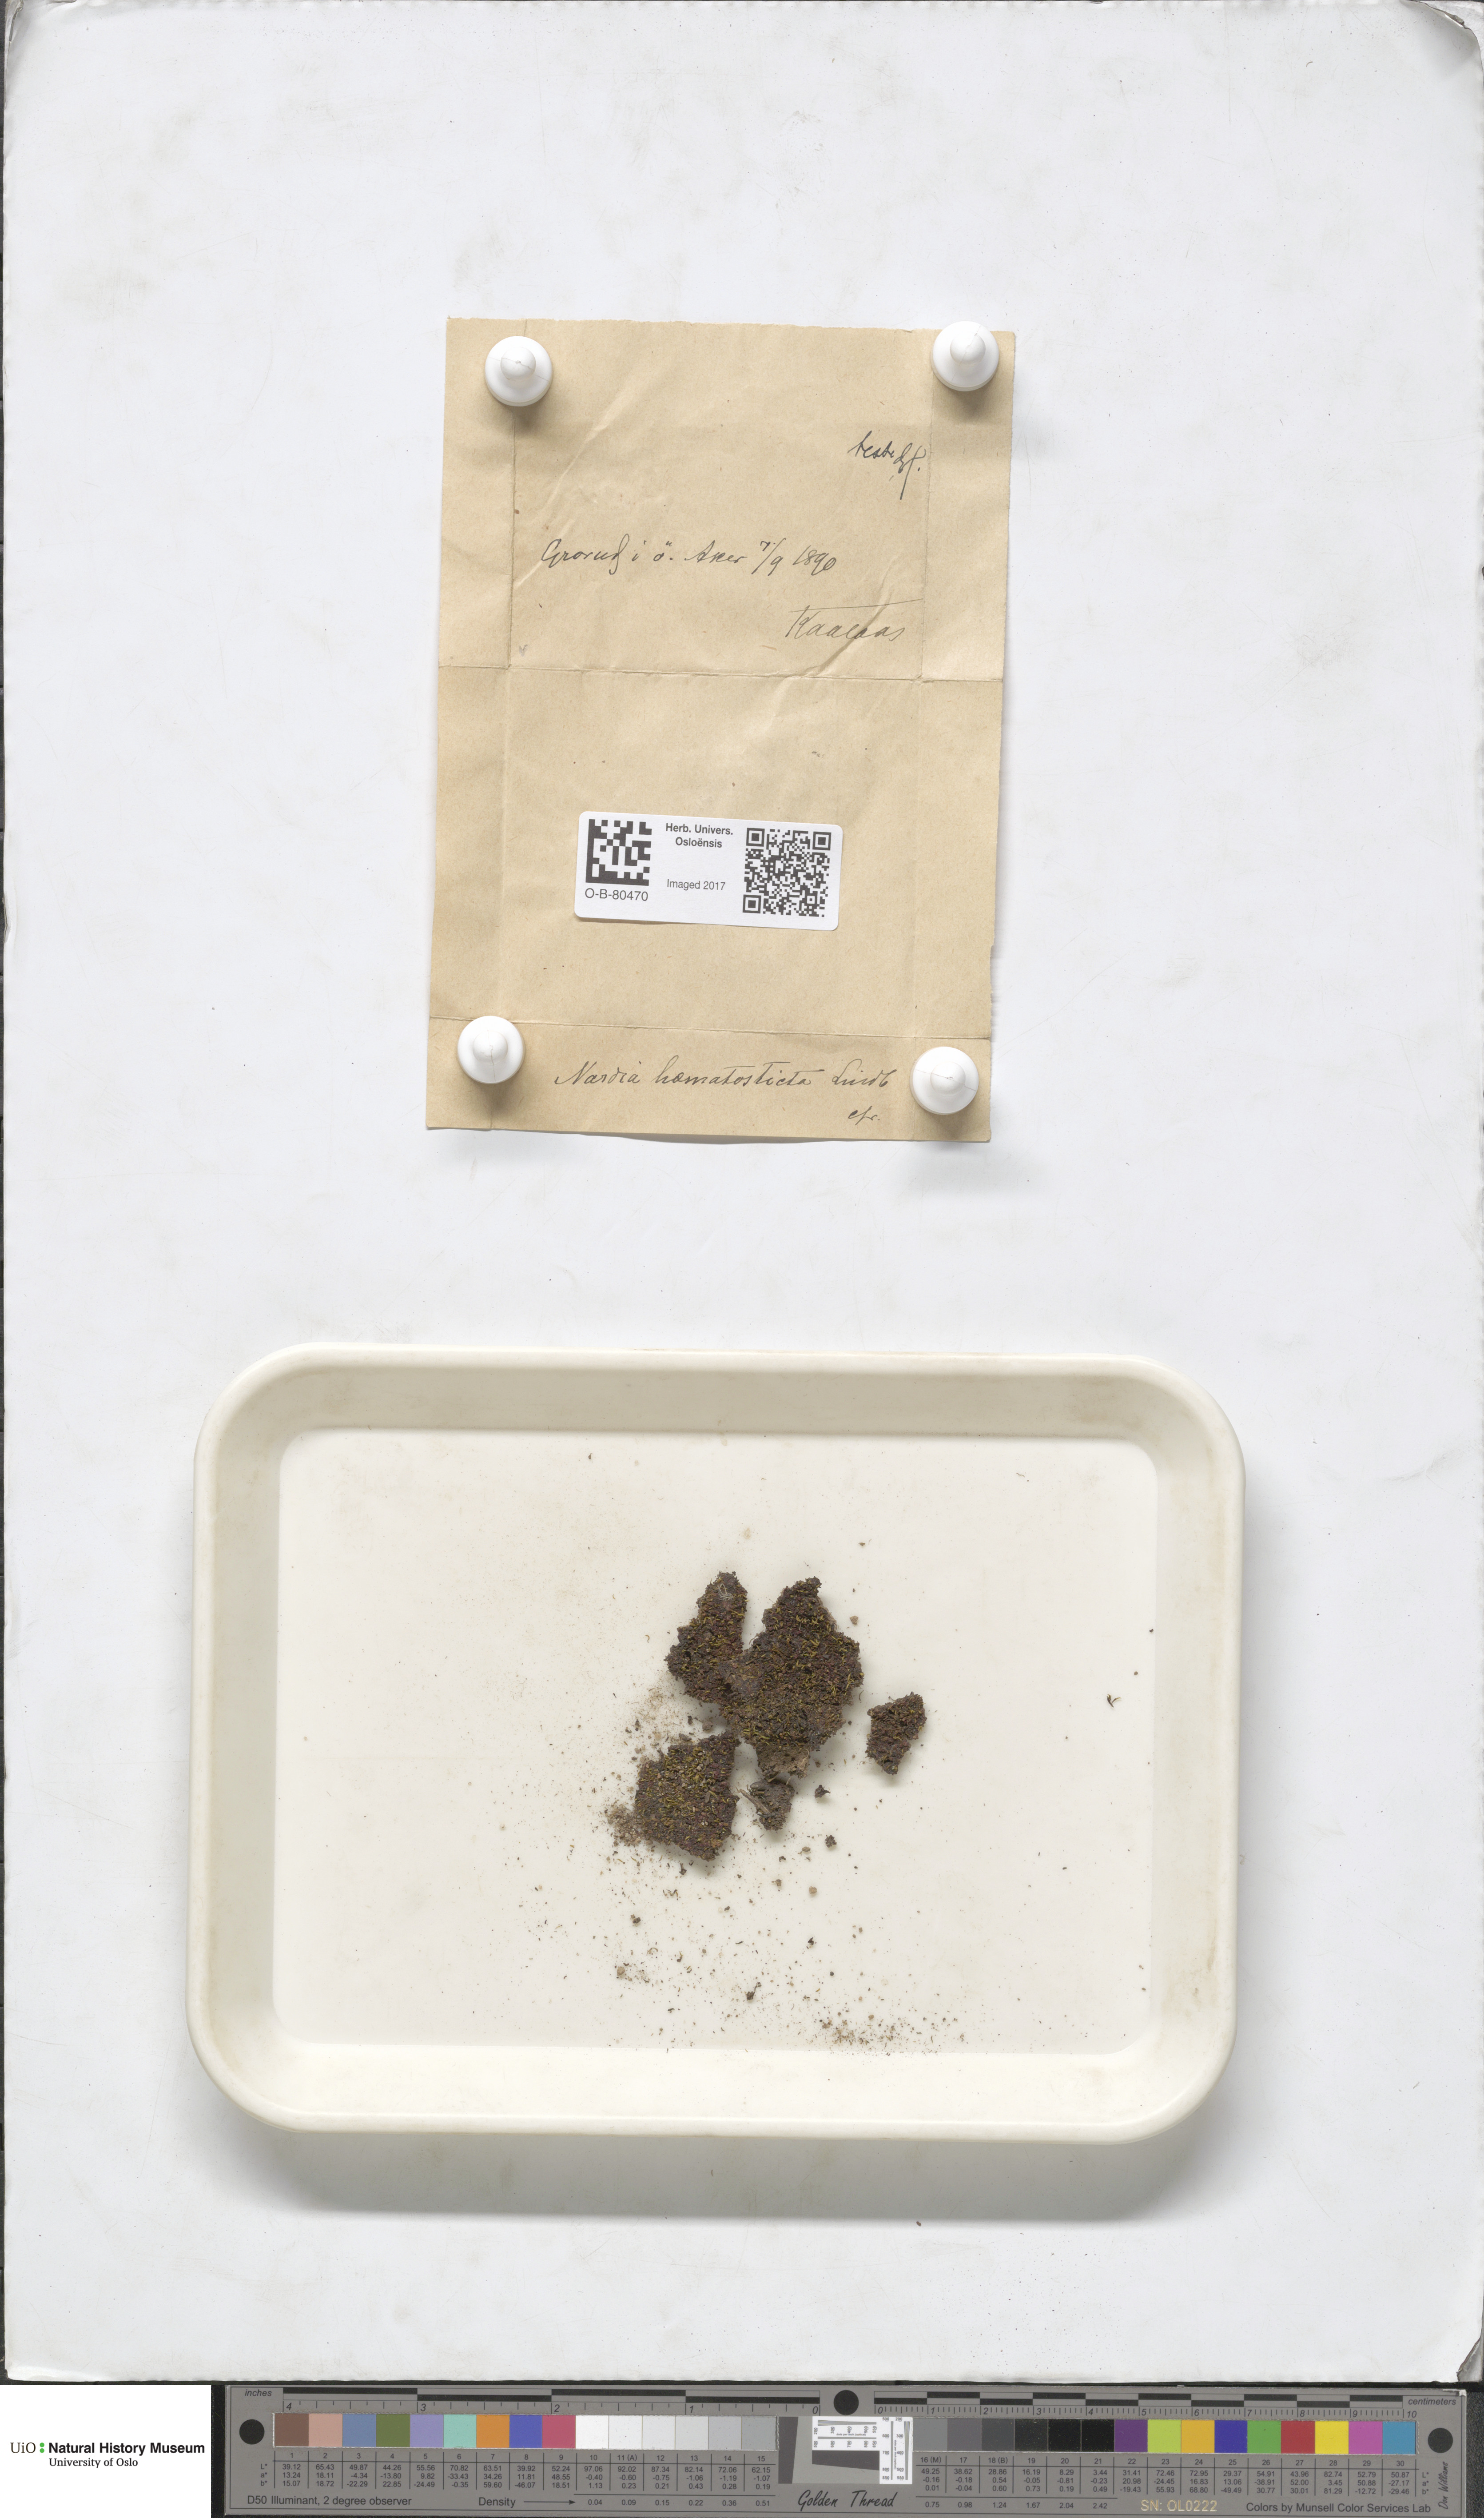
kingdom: Plantae
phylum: Marchantiophyta
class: Jungermanniopsida
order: Jungermanniales
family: Gymnomitriaceae
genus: Nardia
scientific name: Nardia geoscyphus
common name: Earth-cup flapwort
